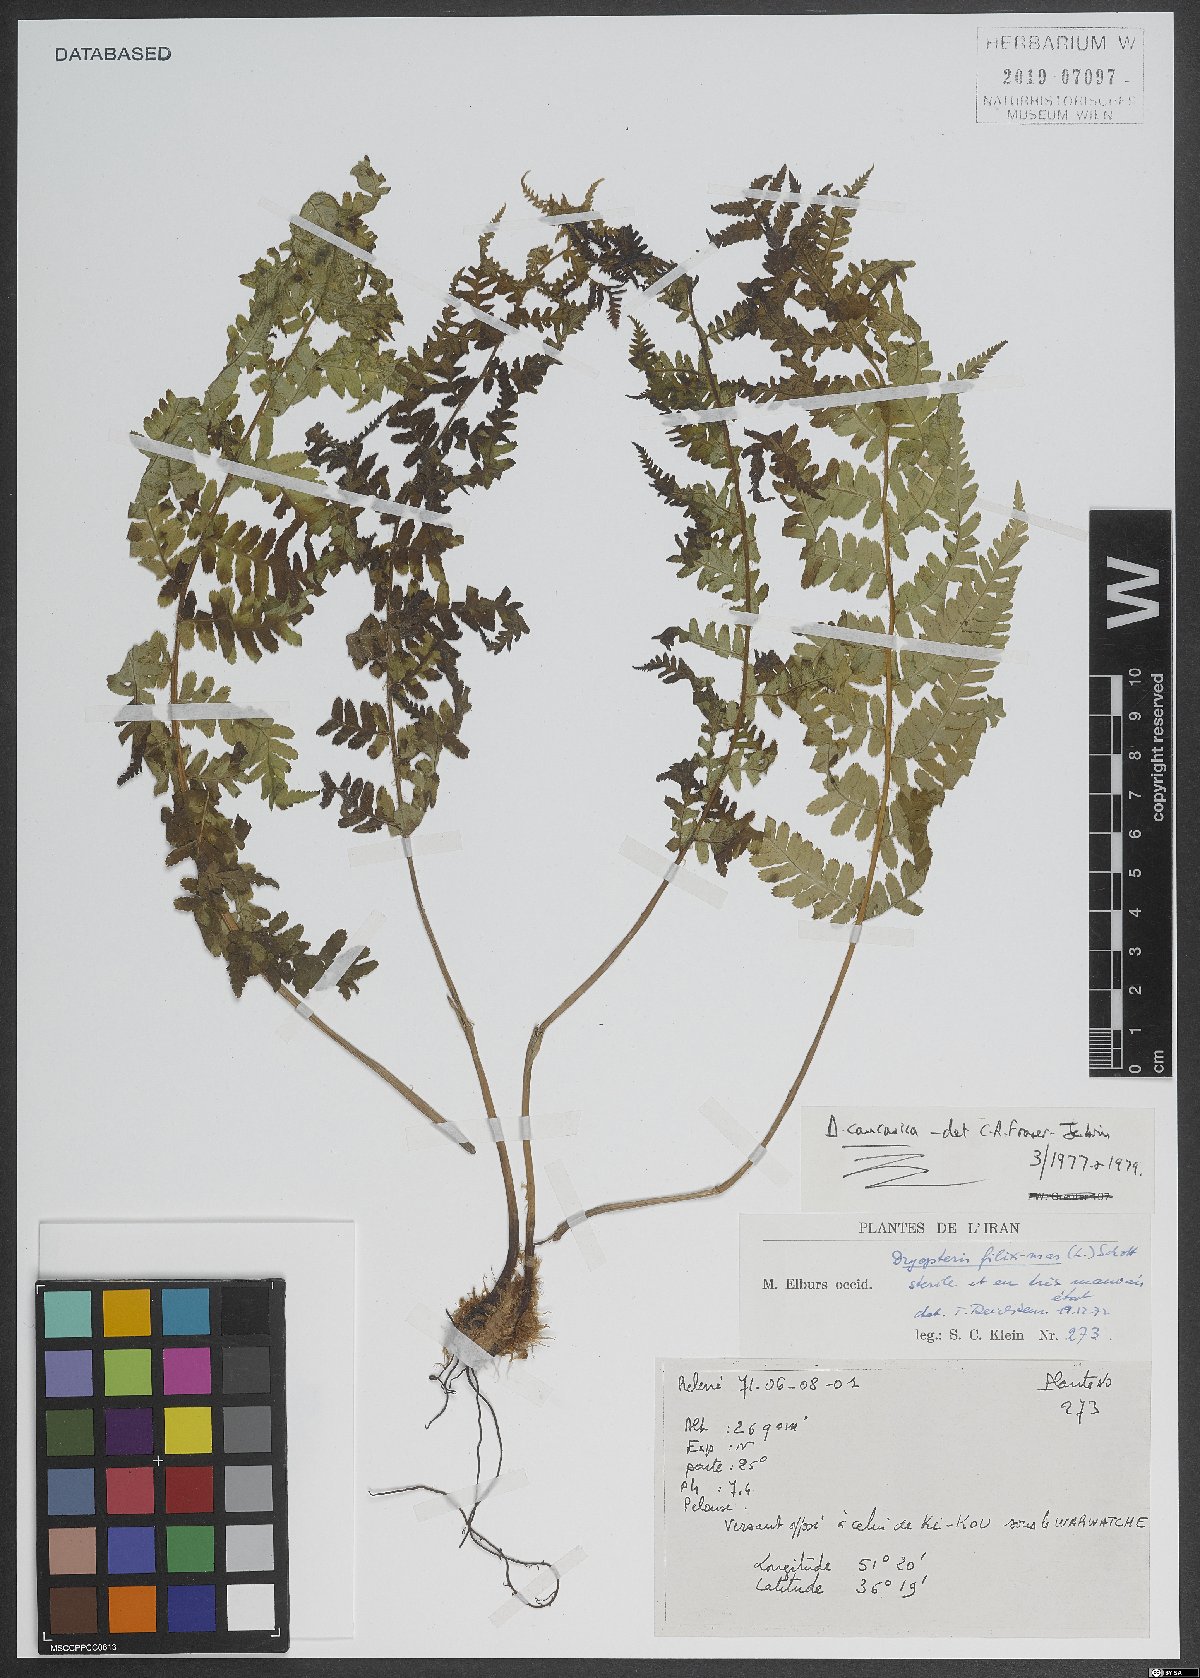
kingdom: Plantae
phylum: Tracheophyta
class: Polypodiopsida
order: Polypodiales
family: Dryopteridaceae
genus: Dryopteris
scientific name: Dryopteris
